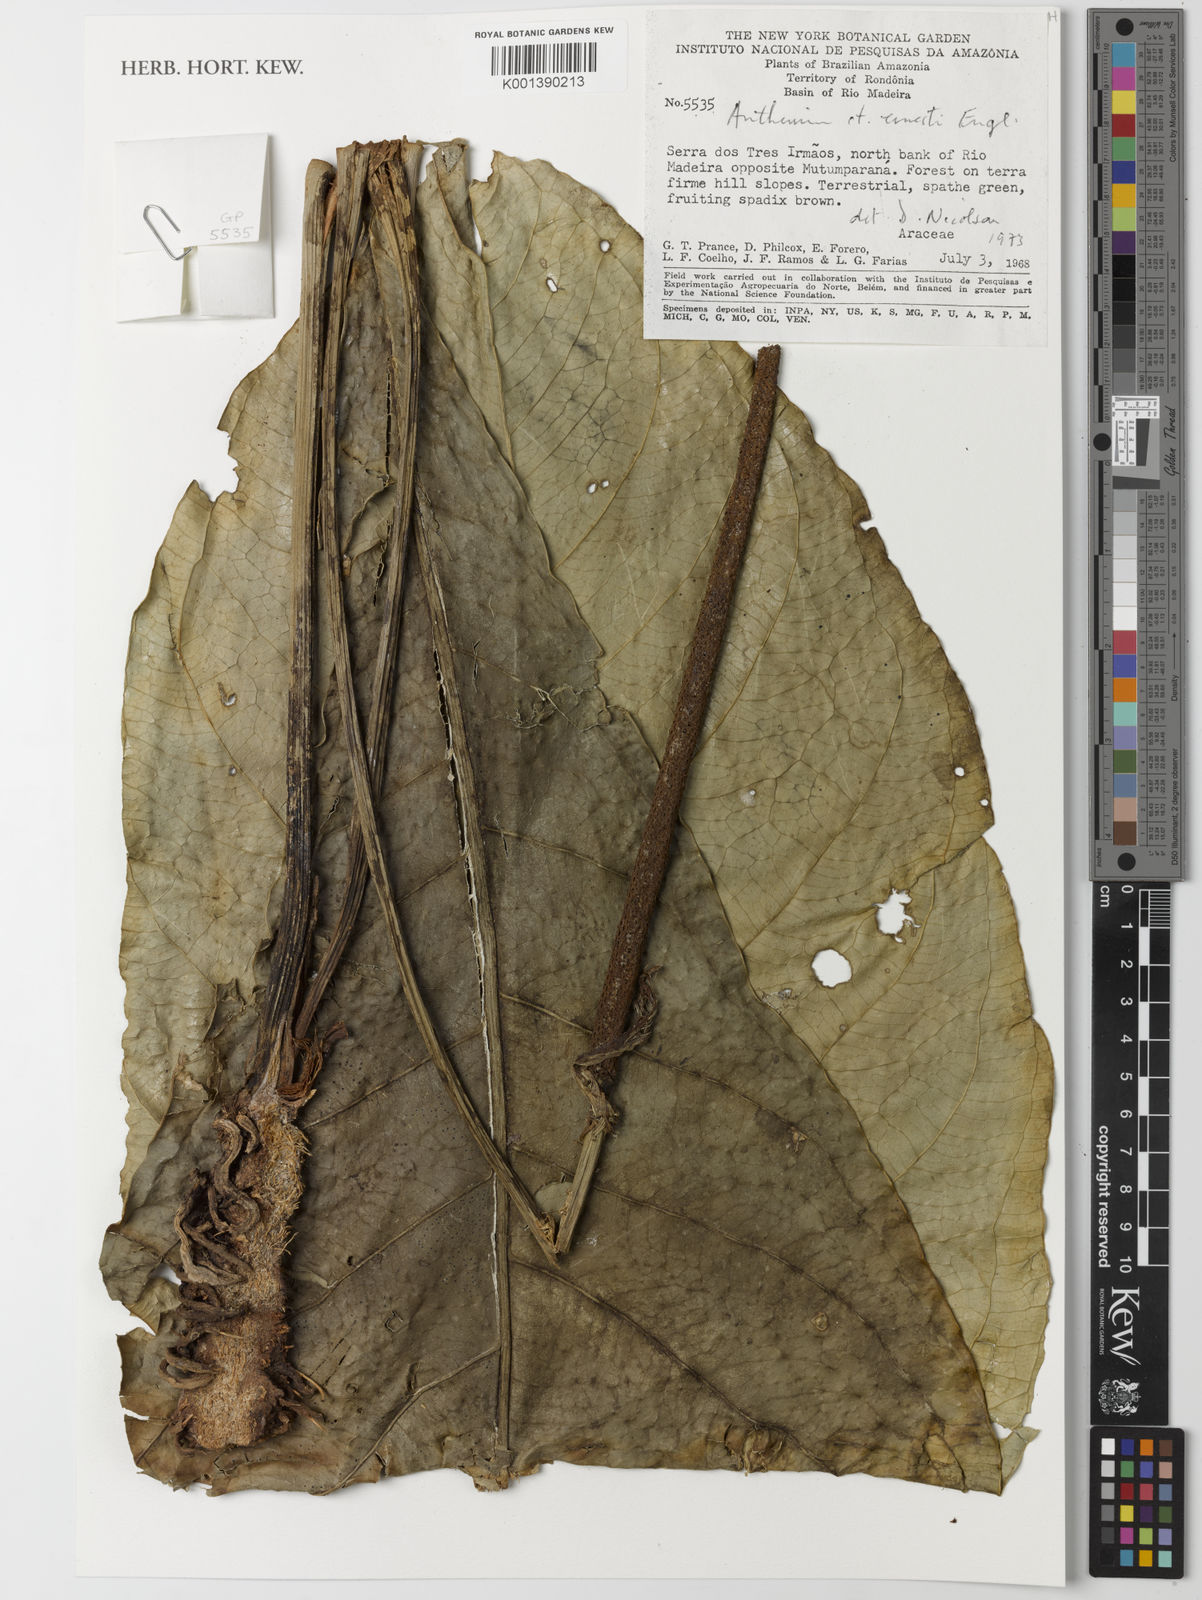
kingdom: Plantae
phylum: Tracheophyta
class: Liliopsida
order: Alismatales
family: Araceae
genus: Anthurium
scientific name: Anthurium atropurpureum
